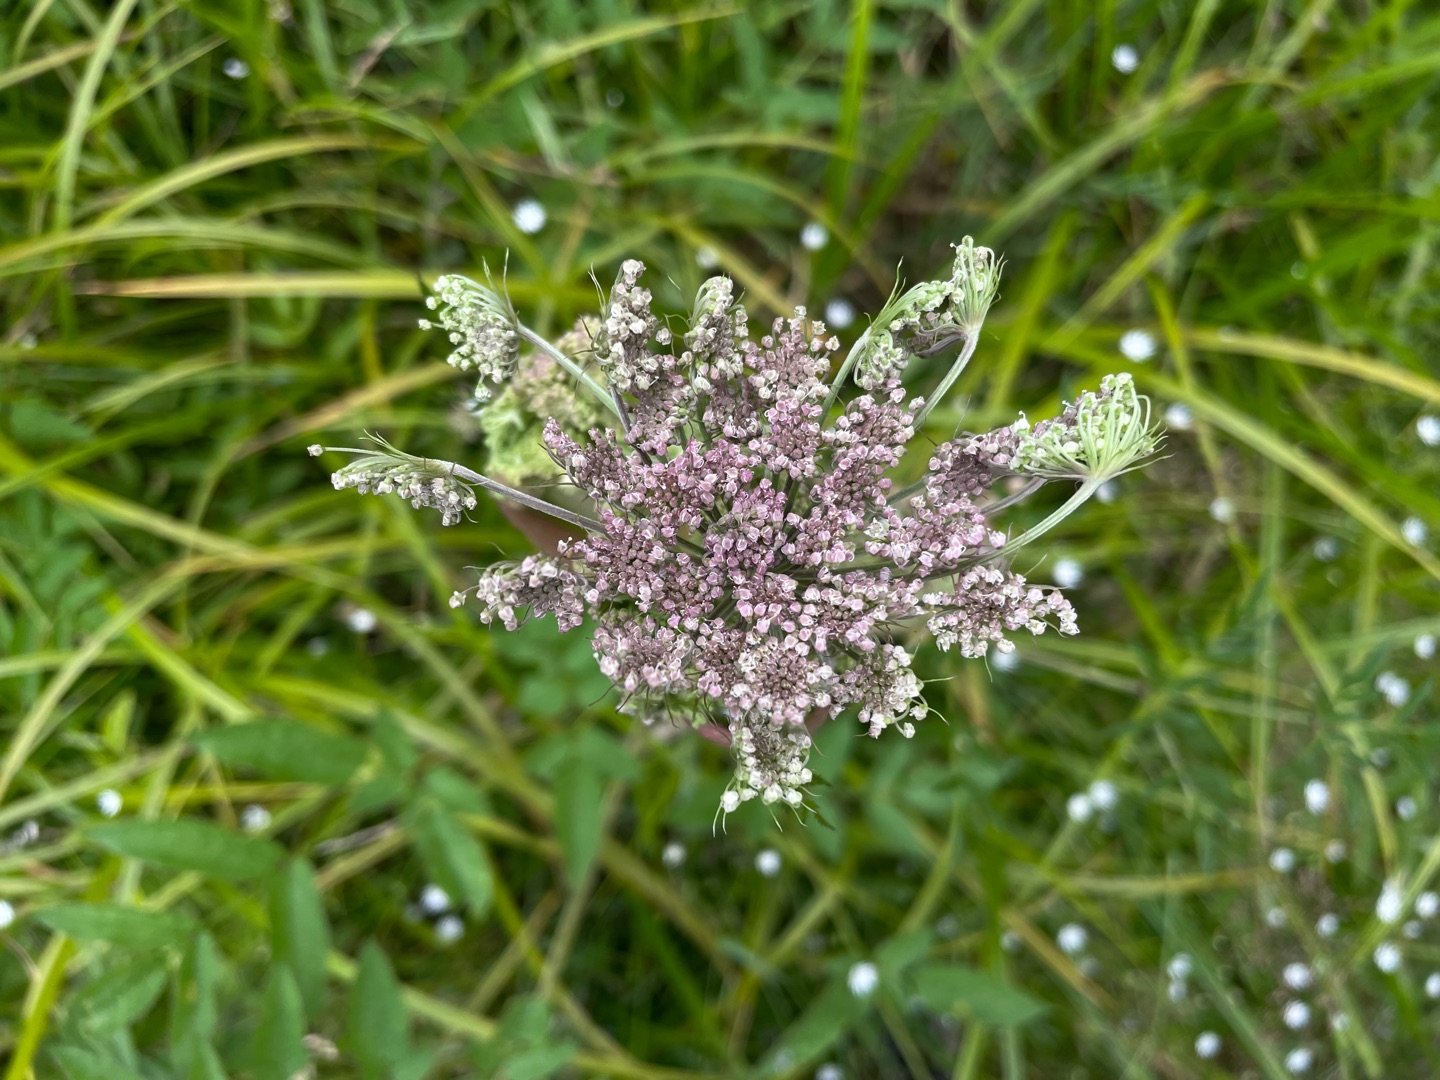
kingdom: Plantae
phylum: Tracheophyta
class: Magnoliopsida
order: Apiales
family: Apiaceae
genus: Angelica
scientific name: Angelica sylvestris
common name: Angelik
